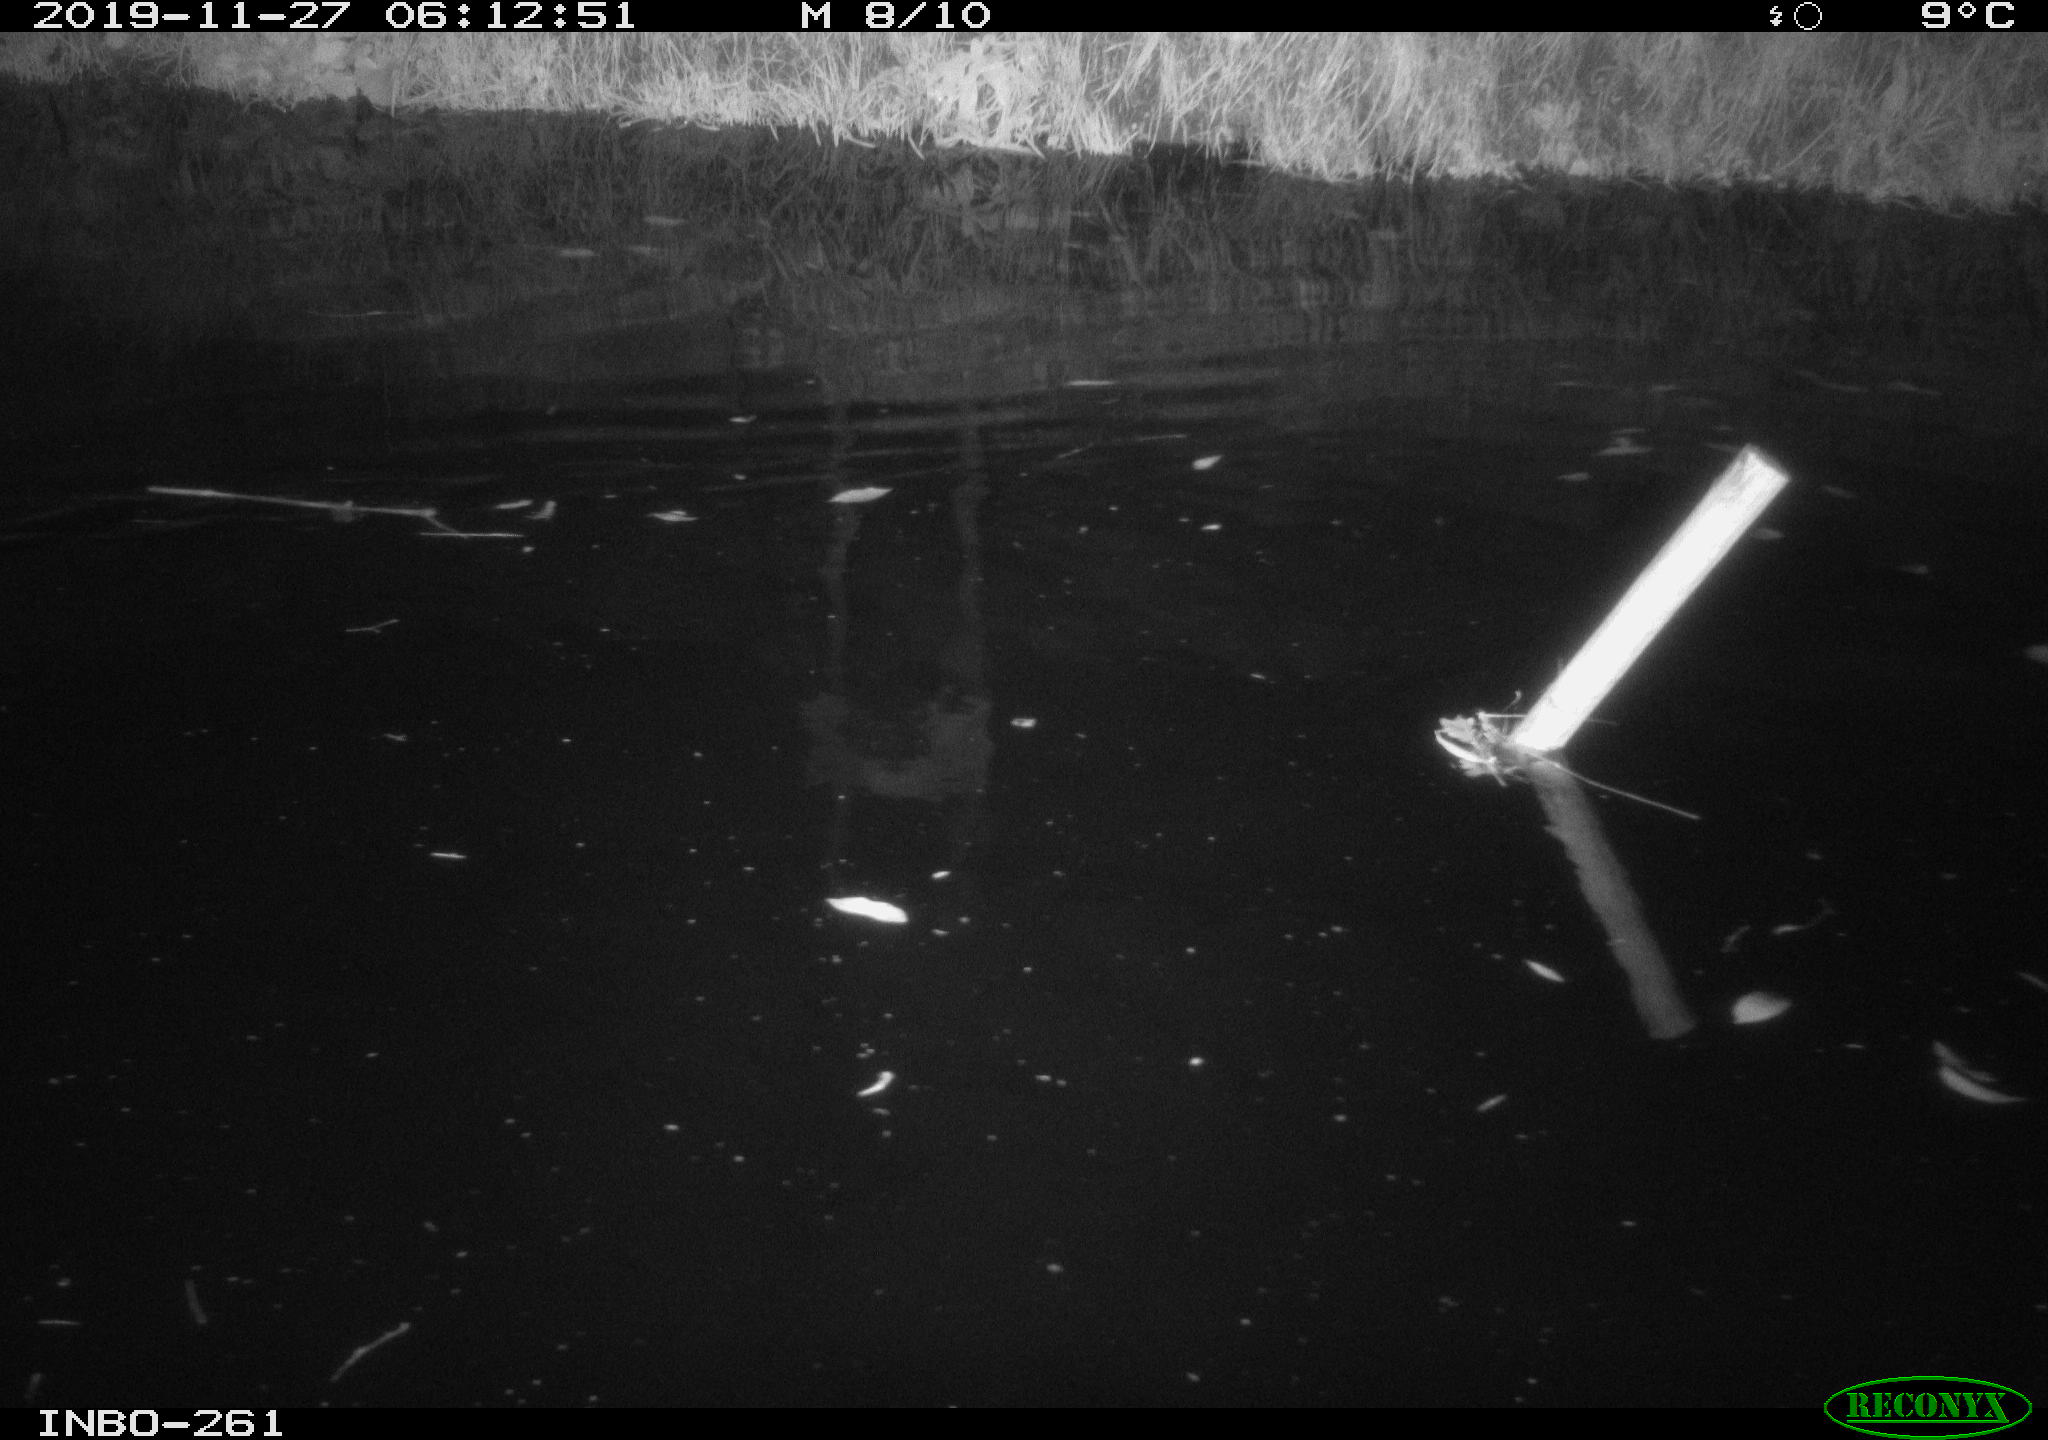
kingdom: Animalia
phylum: Chordata
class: Aves
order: Anseriformes
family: Anatidae
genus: Anas
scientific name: Anas platyrhynchos
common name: Mallard
